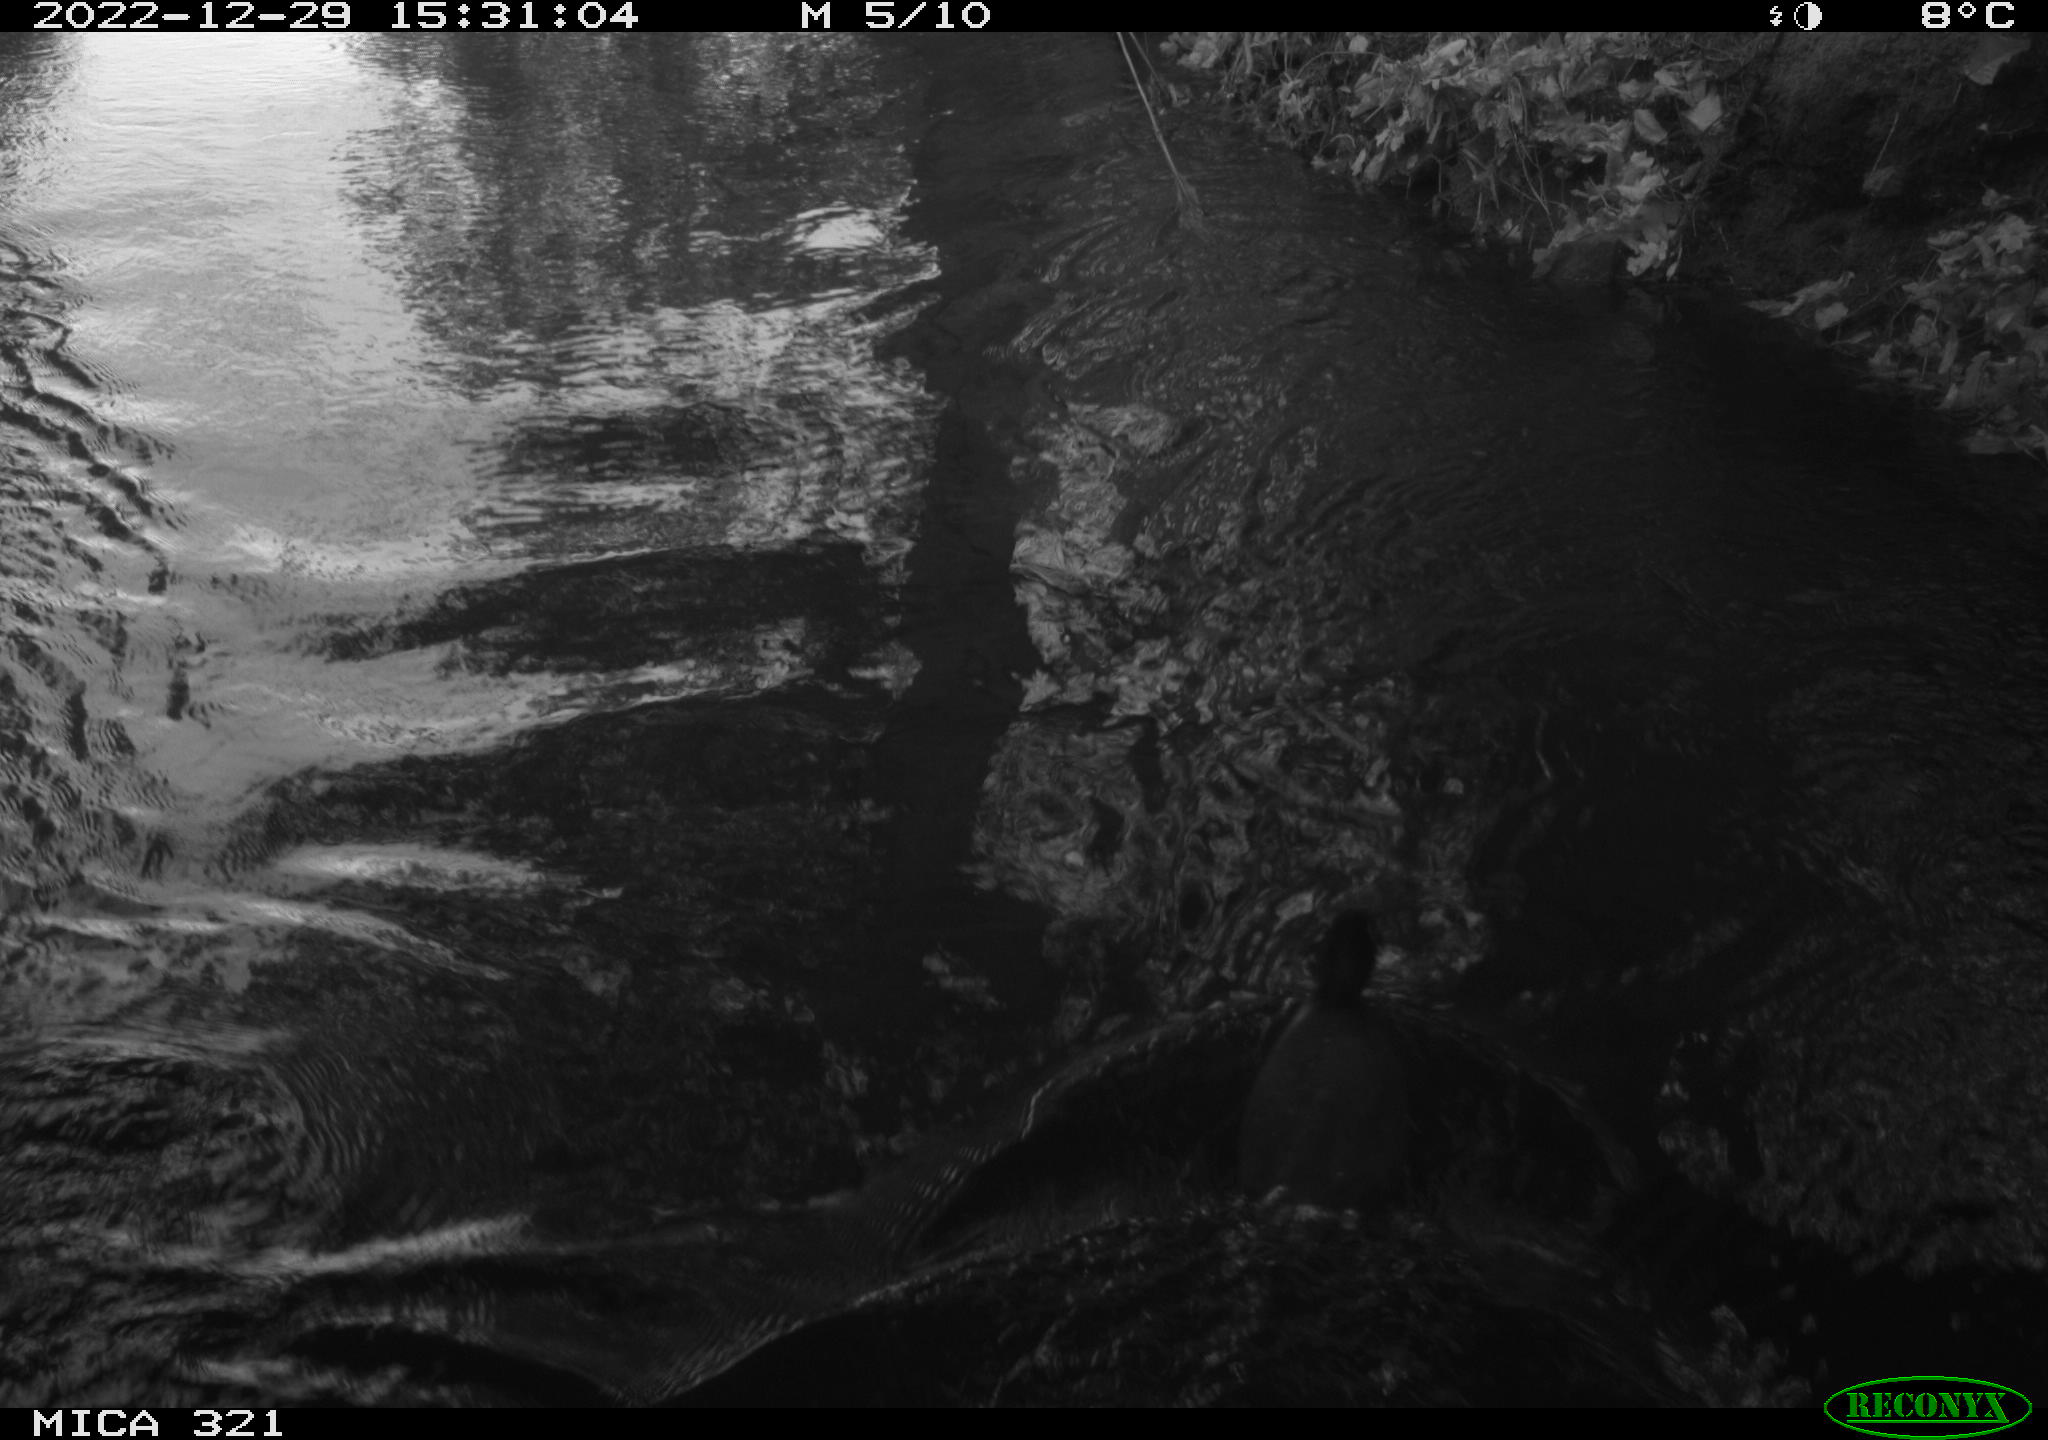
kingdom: Animalia
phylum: Chordata
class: Aves
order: Gruiformes
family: Rallidae
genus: Fulica
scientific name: Fulica atra
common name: Eurasian coot
